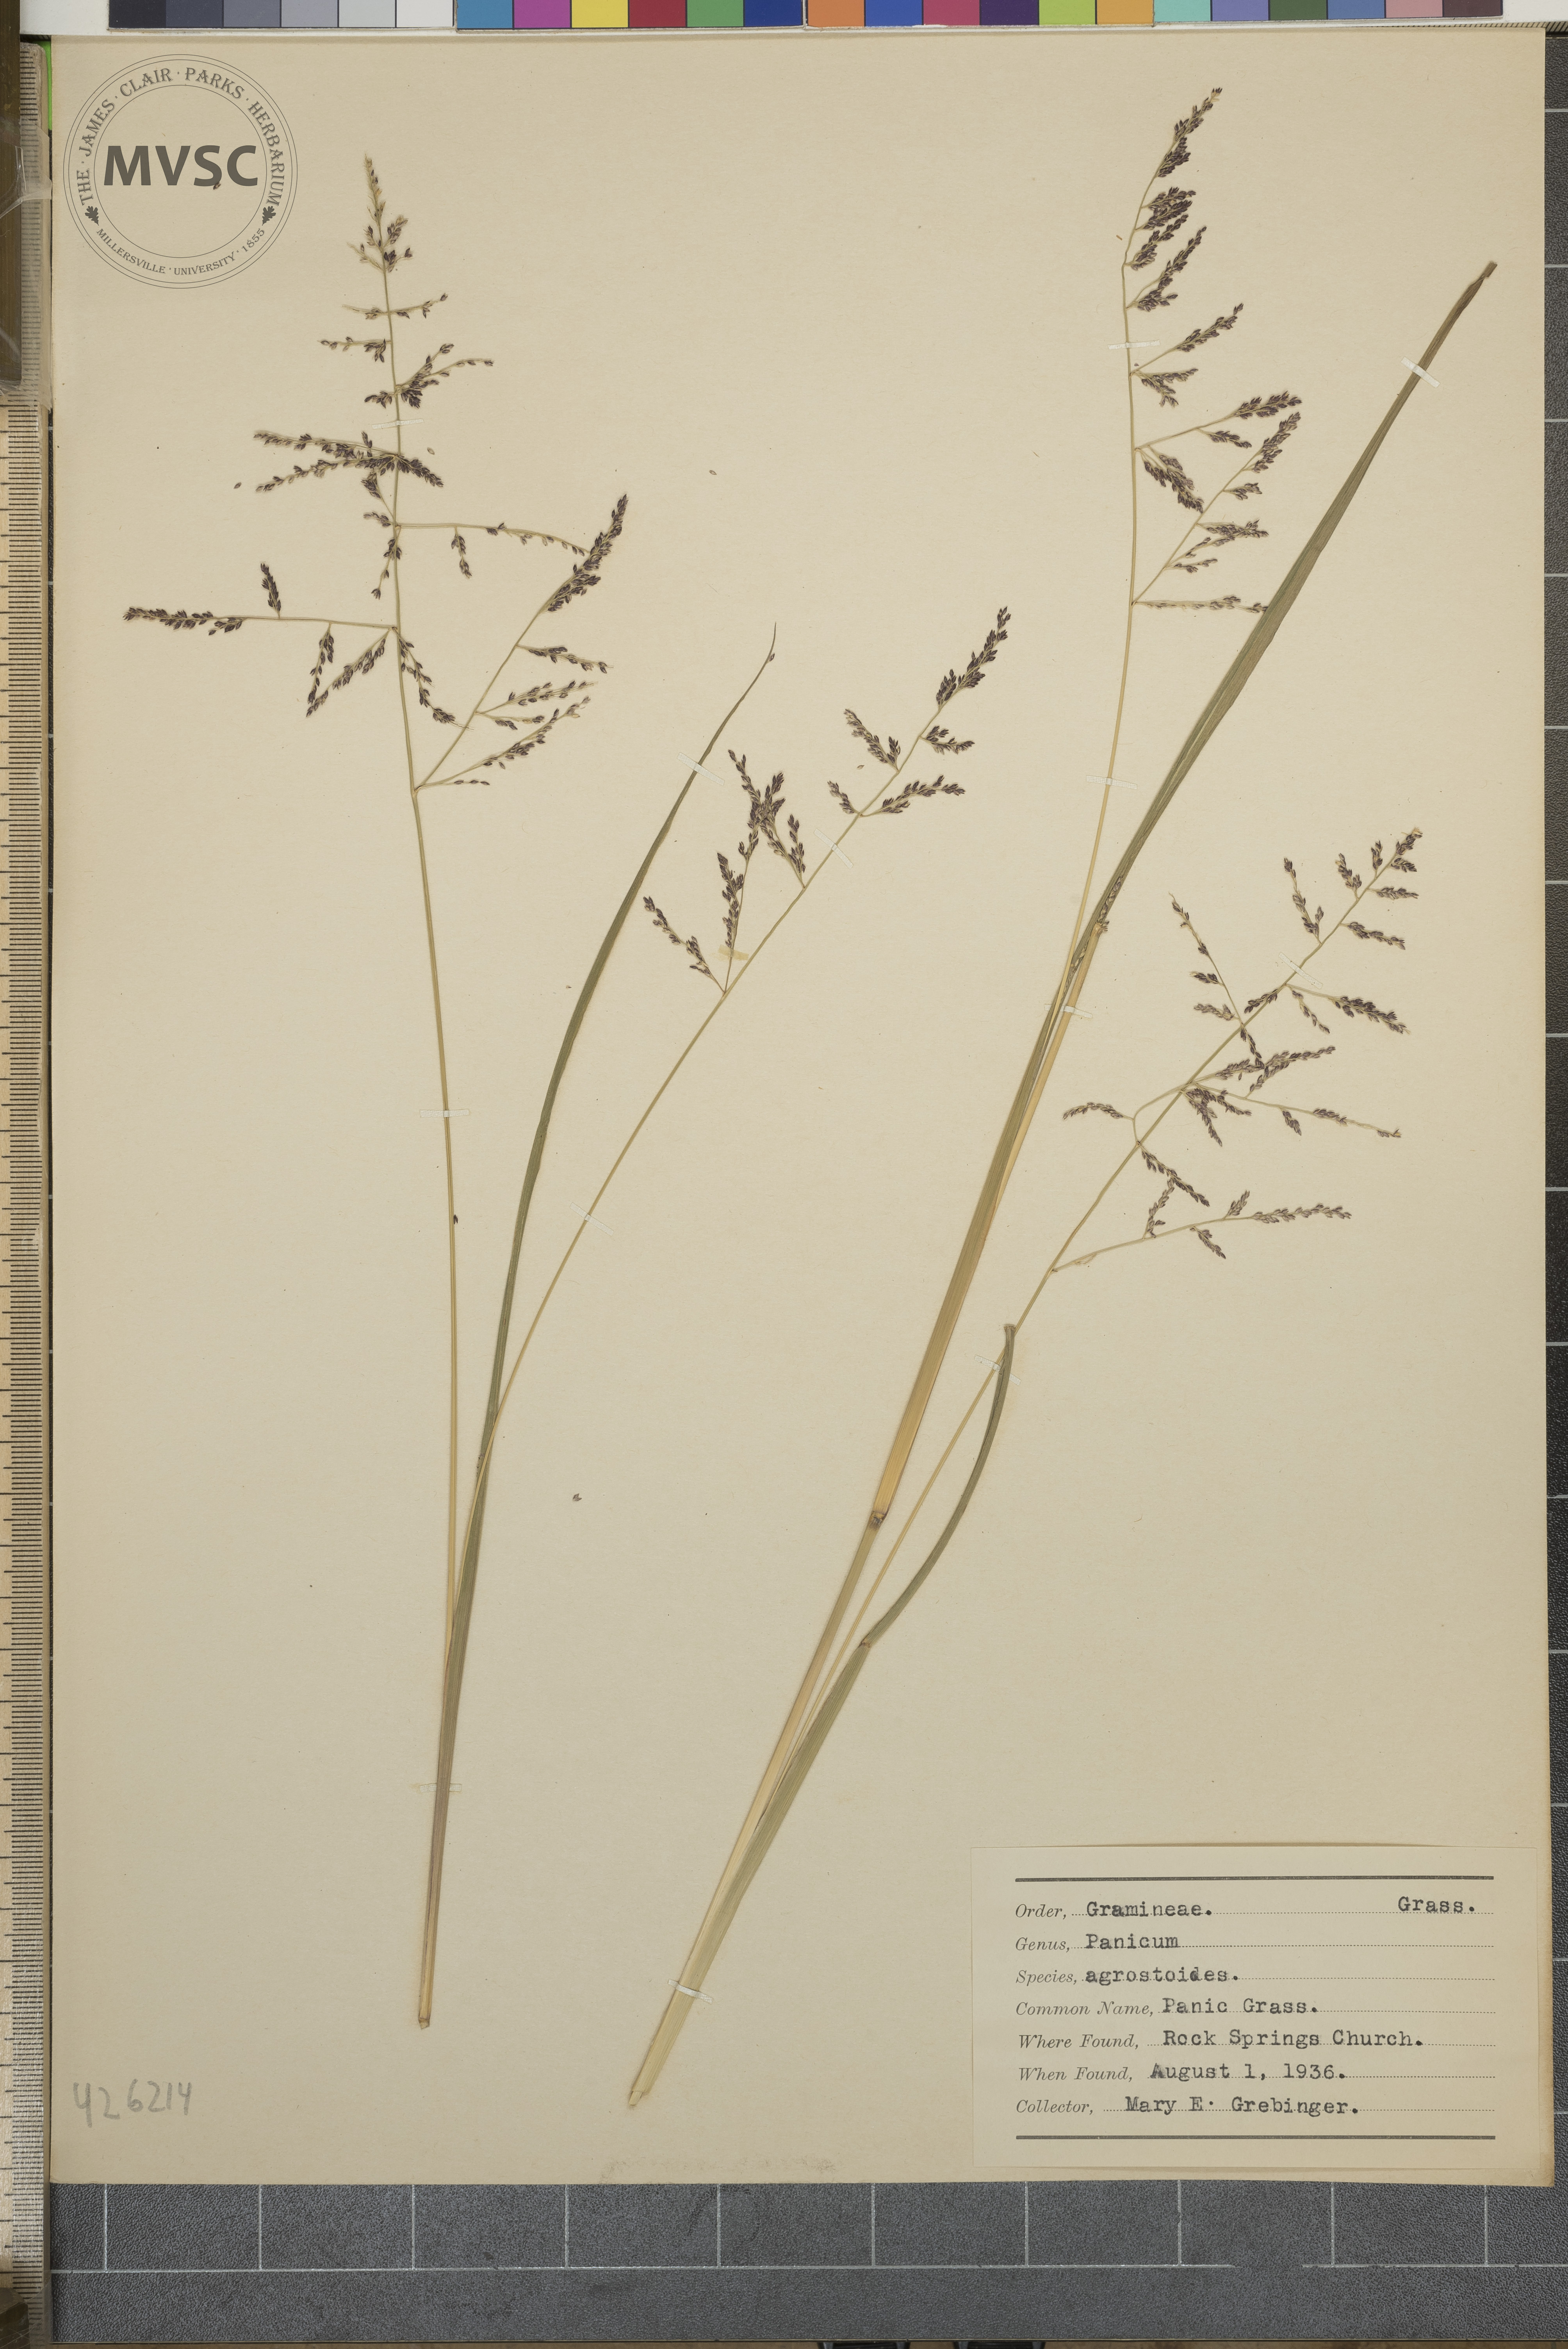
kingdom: Plantae
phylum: Tracheophyta
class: Liliopsida
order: Poales
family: Poaceae
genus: Panicum
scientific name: Panicum agrostoides
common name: Panic grass
